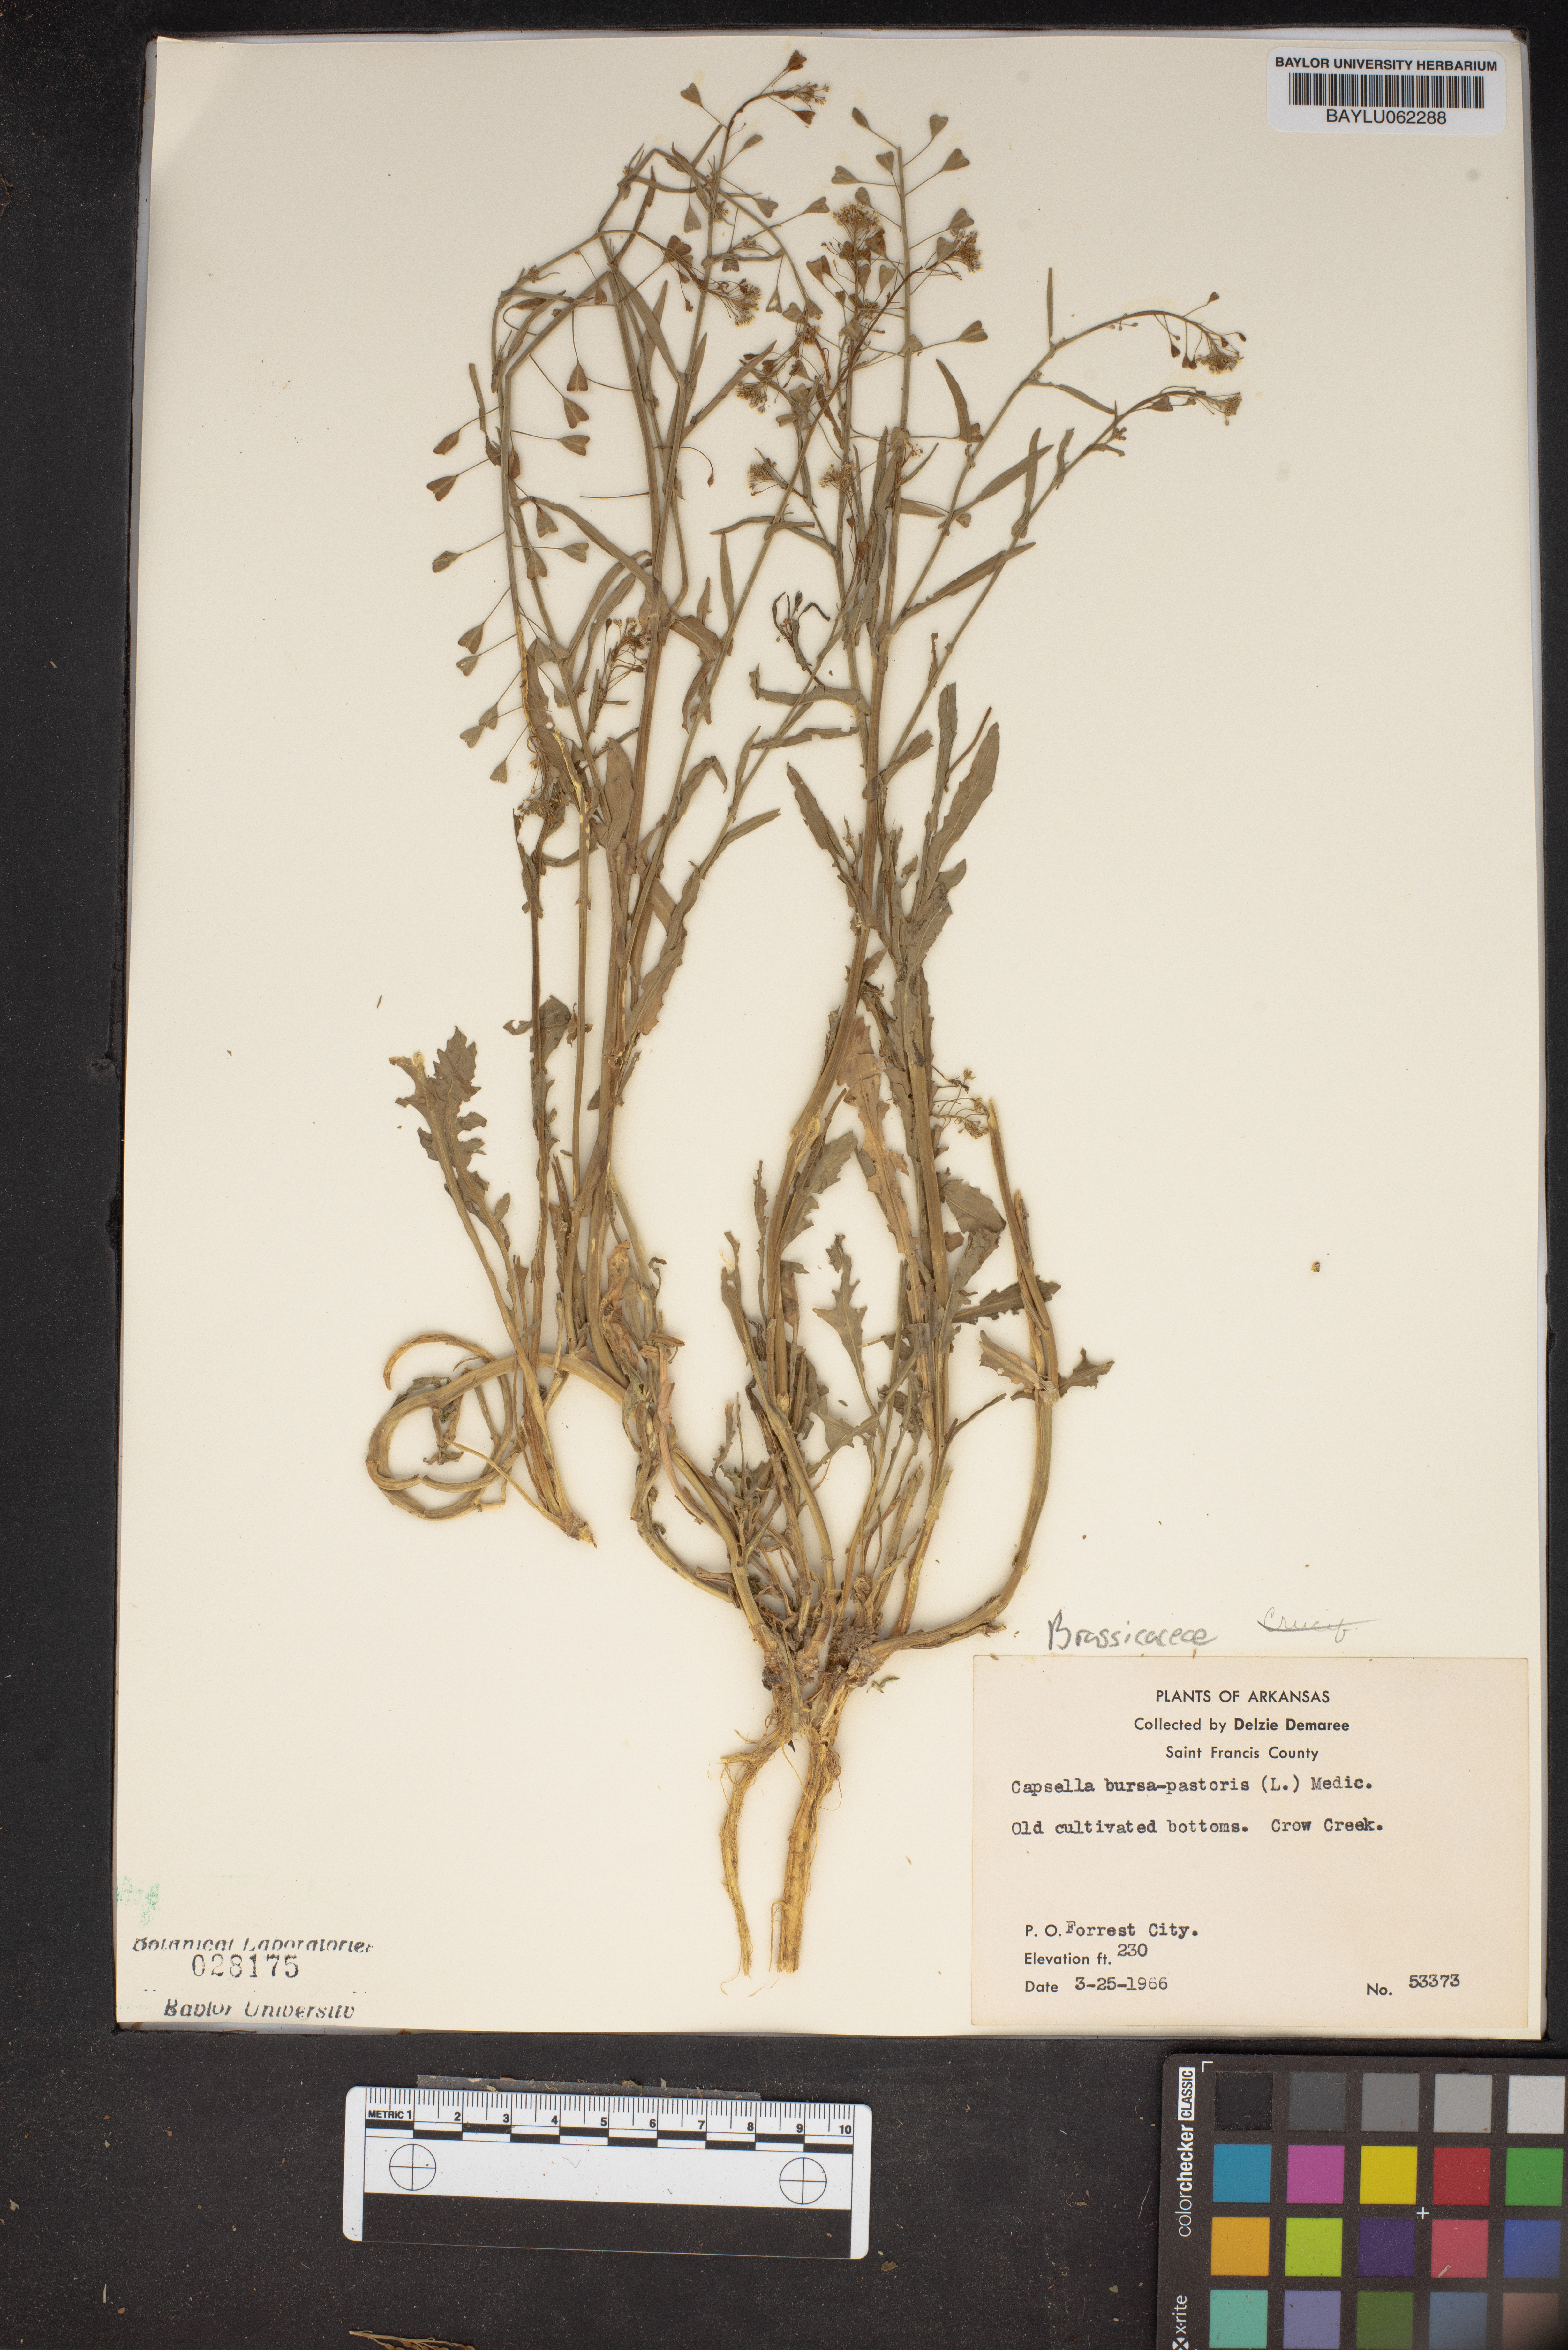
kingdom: Plantae
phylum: Tracheophyta
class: Magnoliopsida
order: Brassicales
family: Brassicaceae
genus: Capsella
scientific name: Capsella bursa-pastoris
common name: Shepherd's purse
